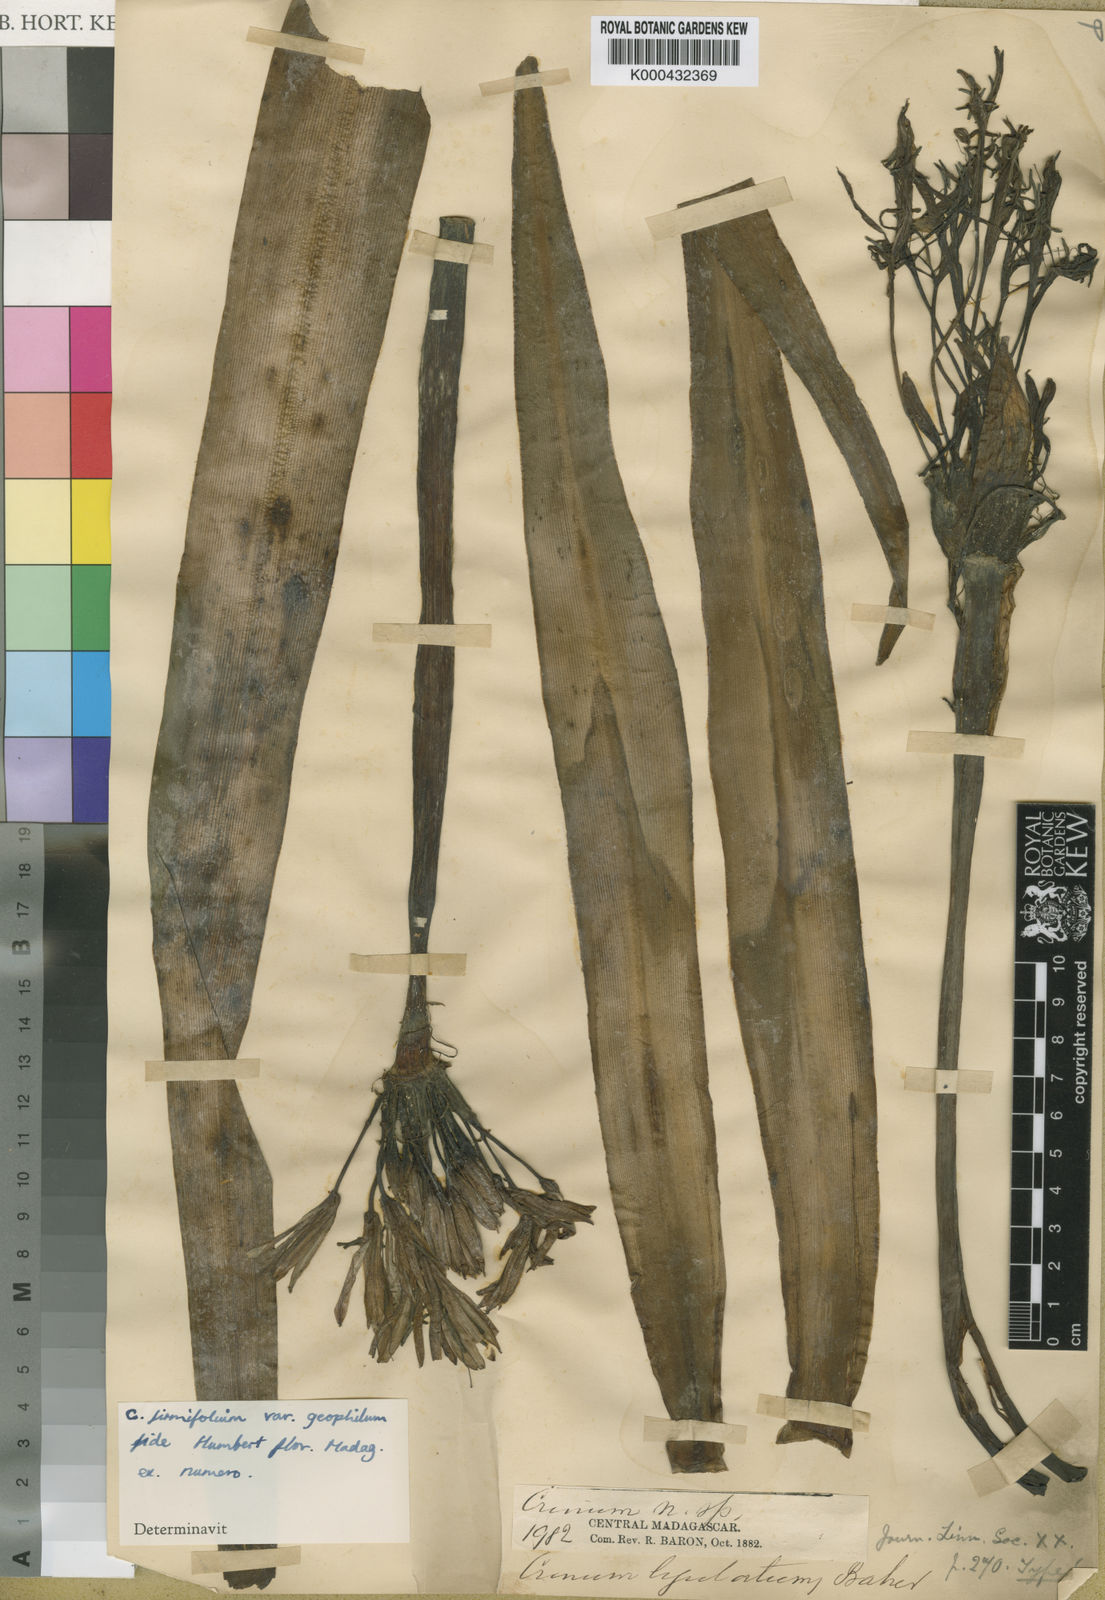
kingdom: Plantae
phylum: Tracheophyta
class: Liliopsida
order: Asparagales
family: Amaryllidaceae
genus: Crinum
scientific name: Crinum firmifolium
